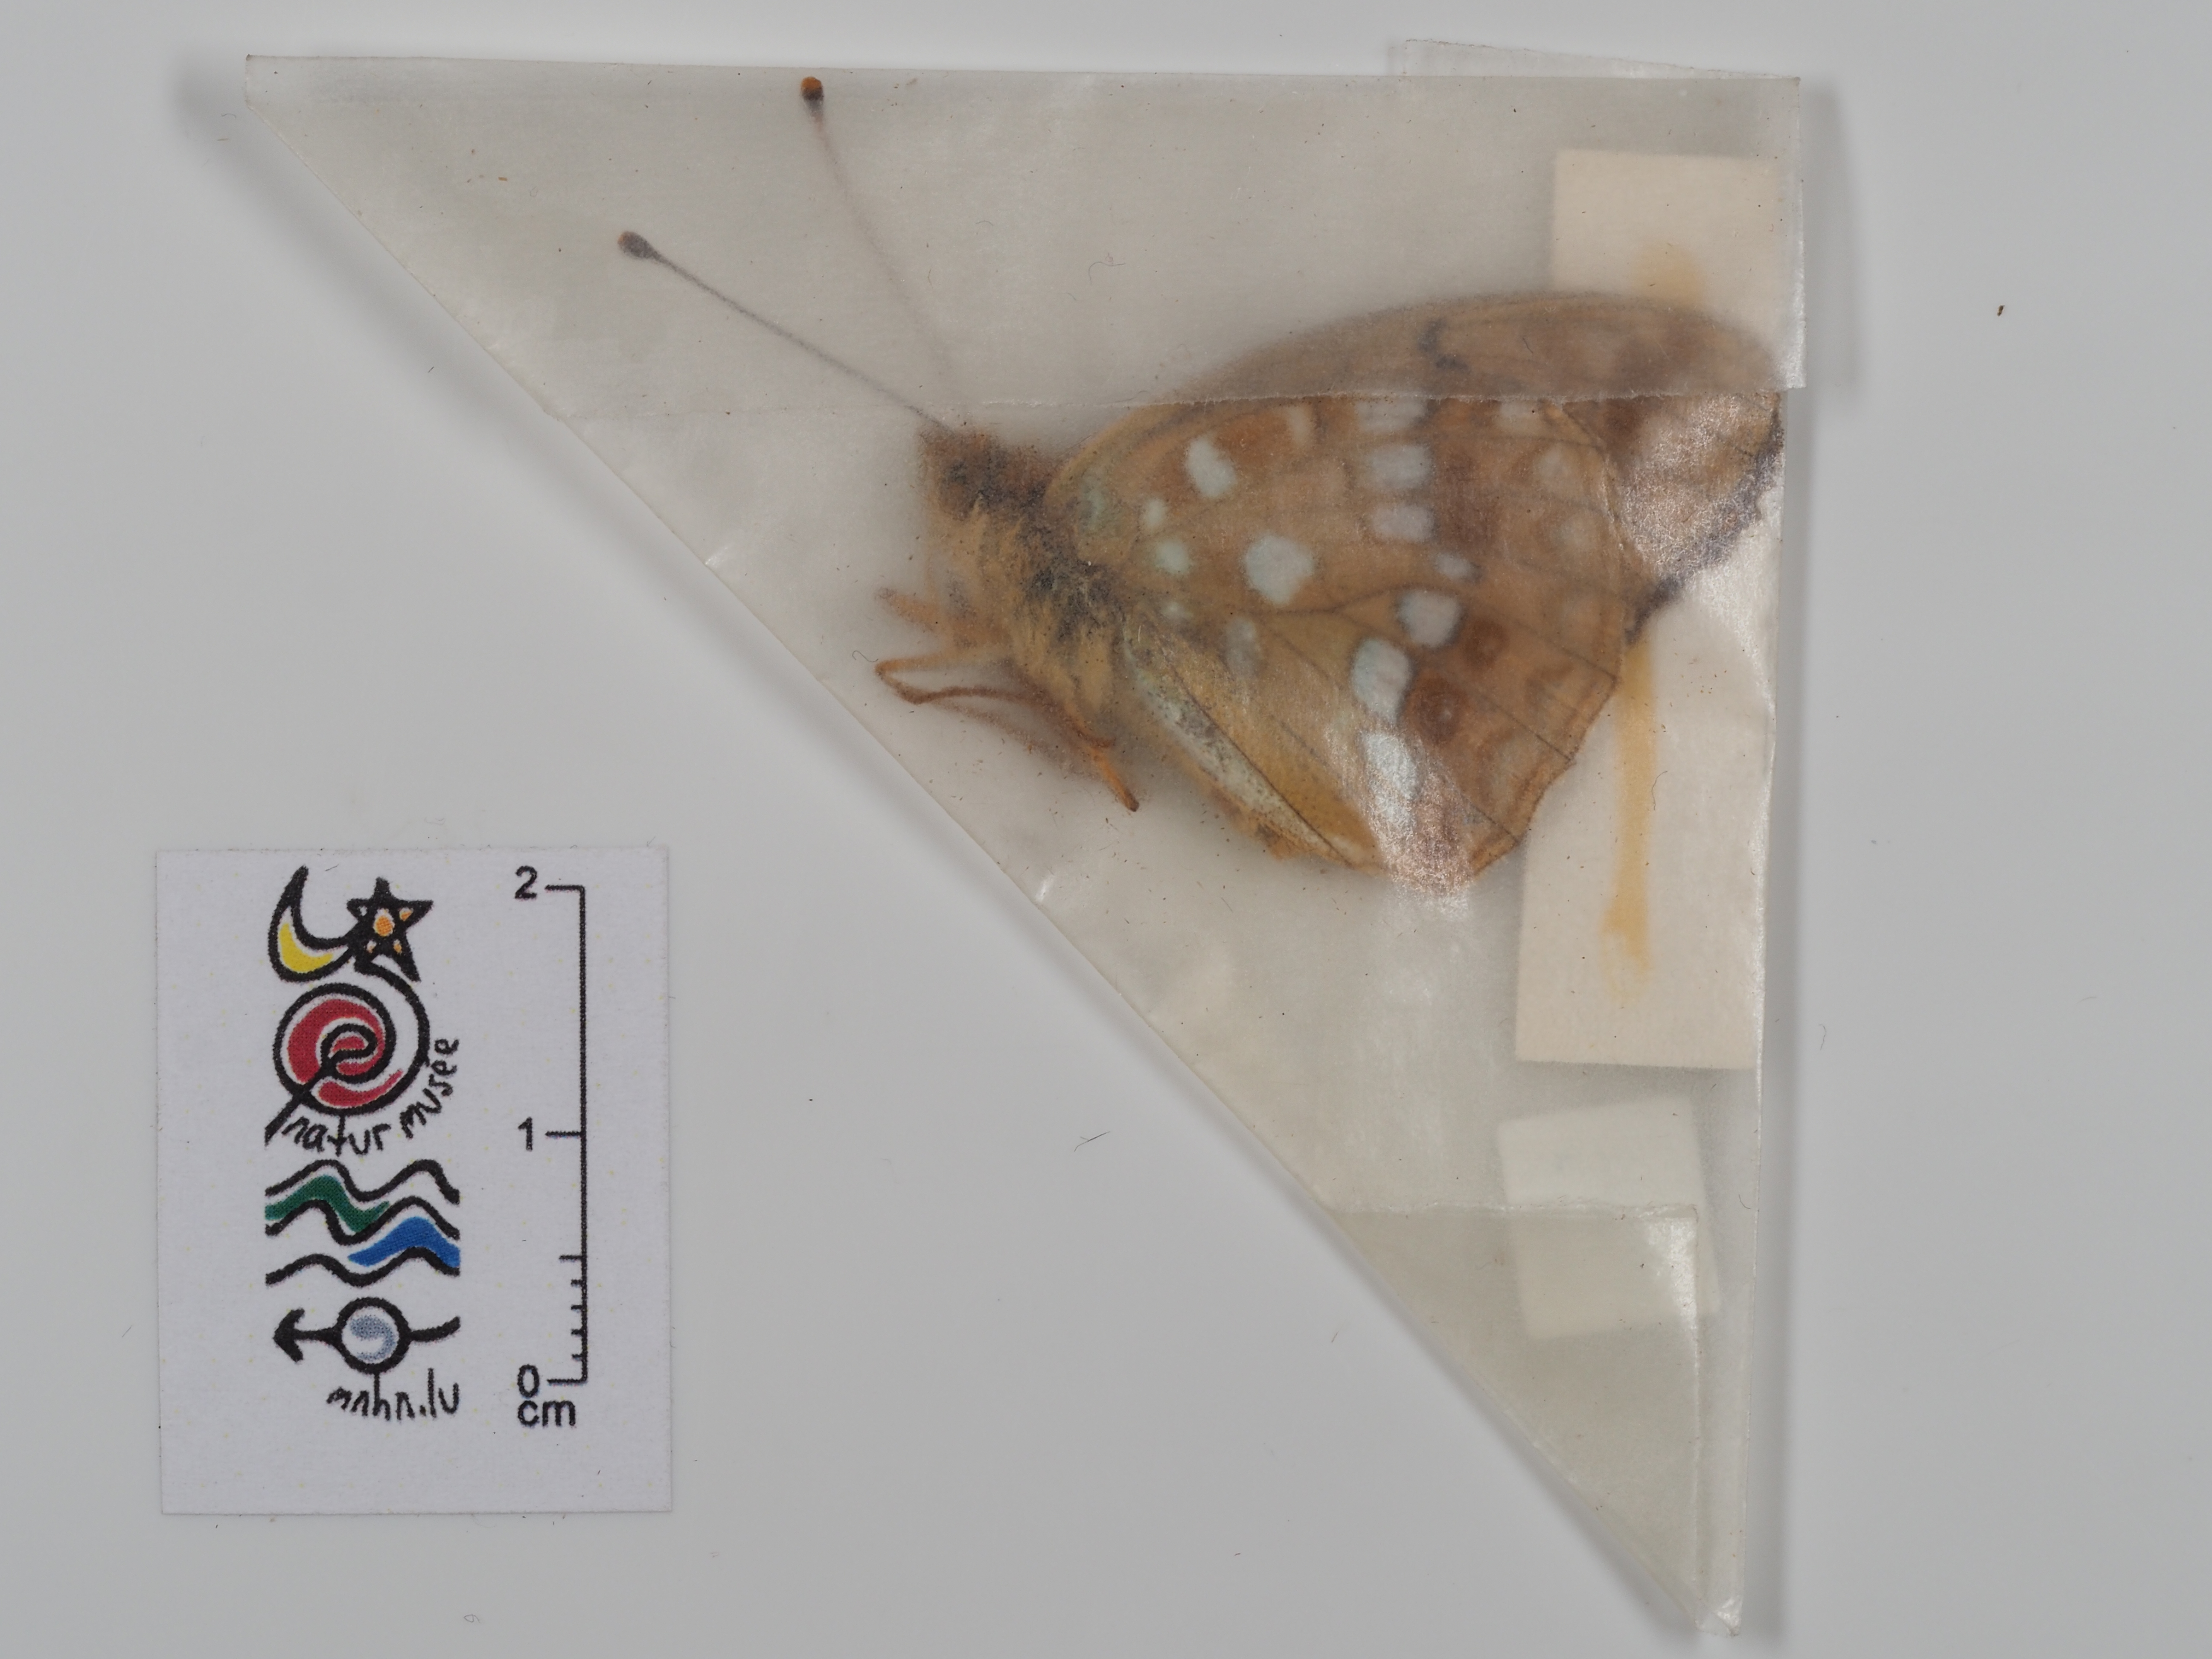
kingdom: Animalia
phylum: Arthropoda
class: Insecta
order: Lepidoptera
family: Nymphalidae
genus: Fabriciana
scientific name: Fabriciana adippe
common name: High brown fritillary
